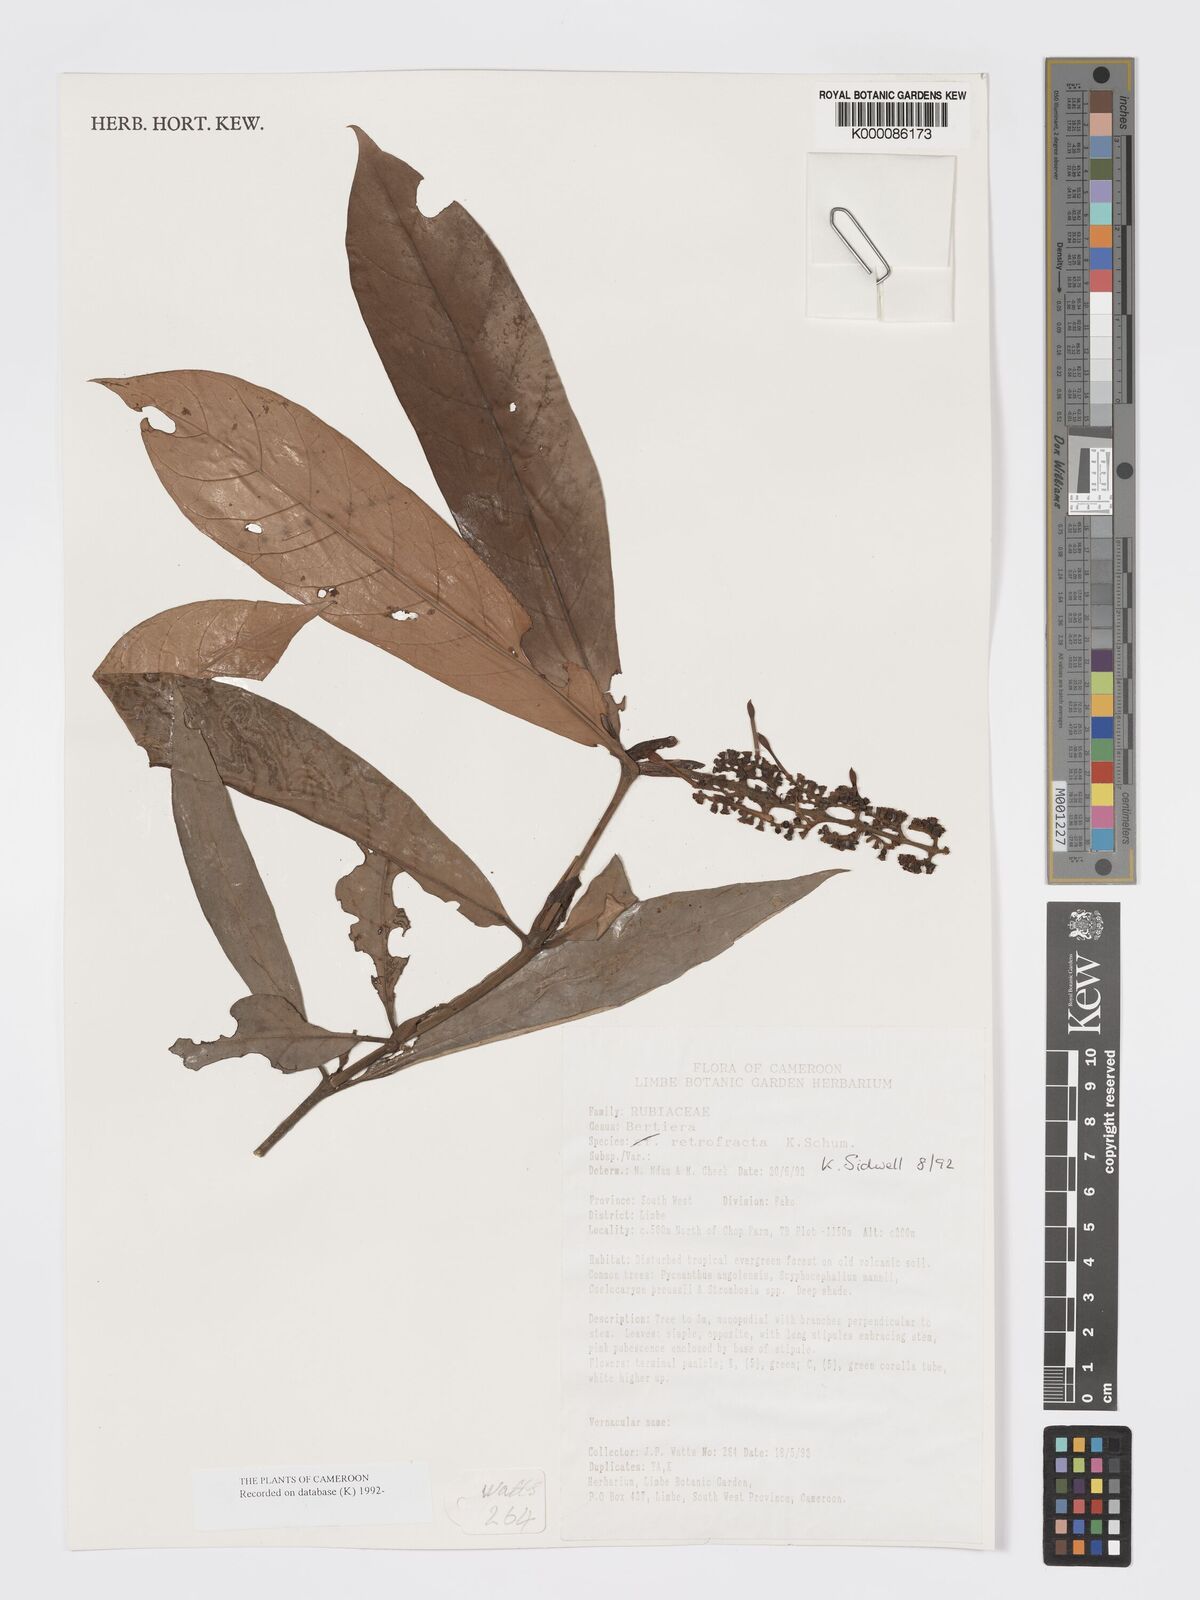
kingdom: Plantae
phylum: Tracheophyta
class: Magnoliopsida
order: Gentianales
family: Rubiaceae
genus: Bertiera
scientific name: Bertiera retrofracta
